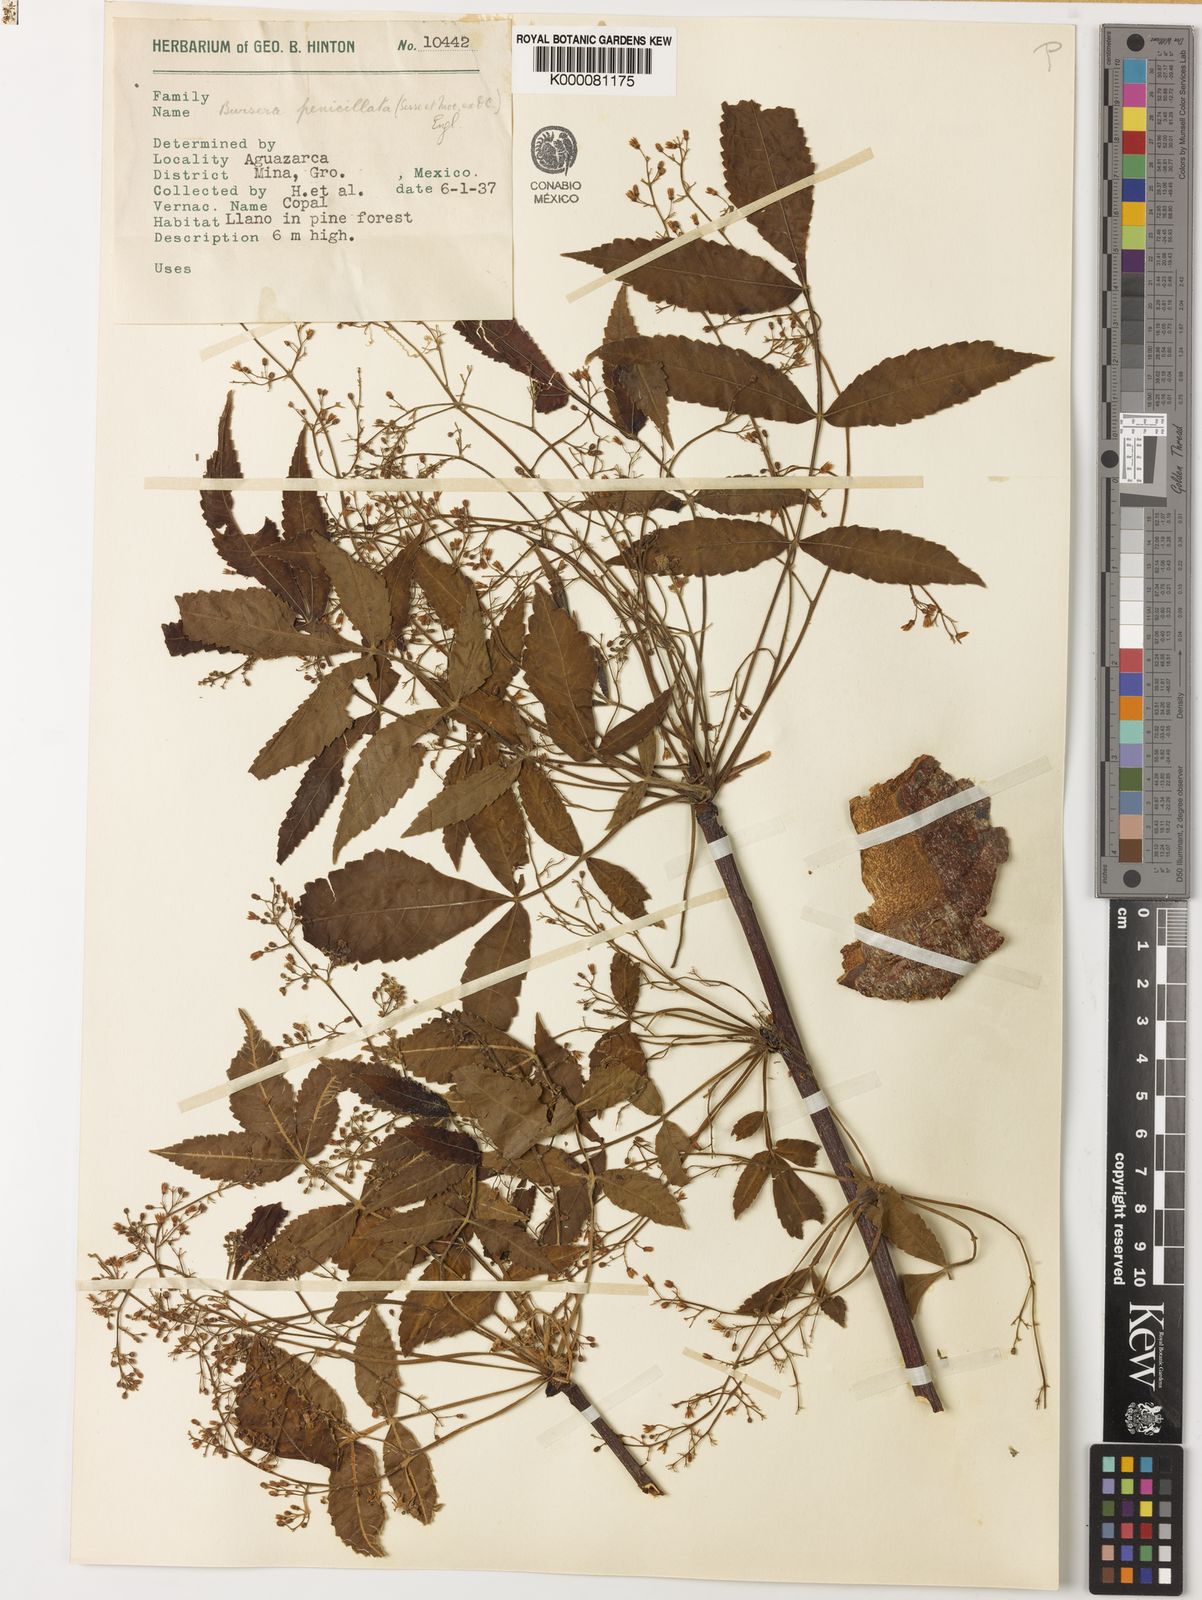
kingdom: Plantae
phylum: Tracheophyta
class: Magnoliopsida
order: Sapindales
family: Burseraceae
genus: Bursera
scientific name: Bursera penicillata
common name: Indian-lavender
